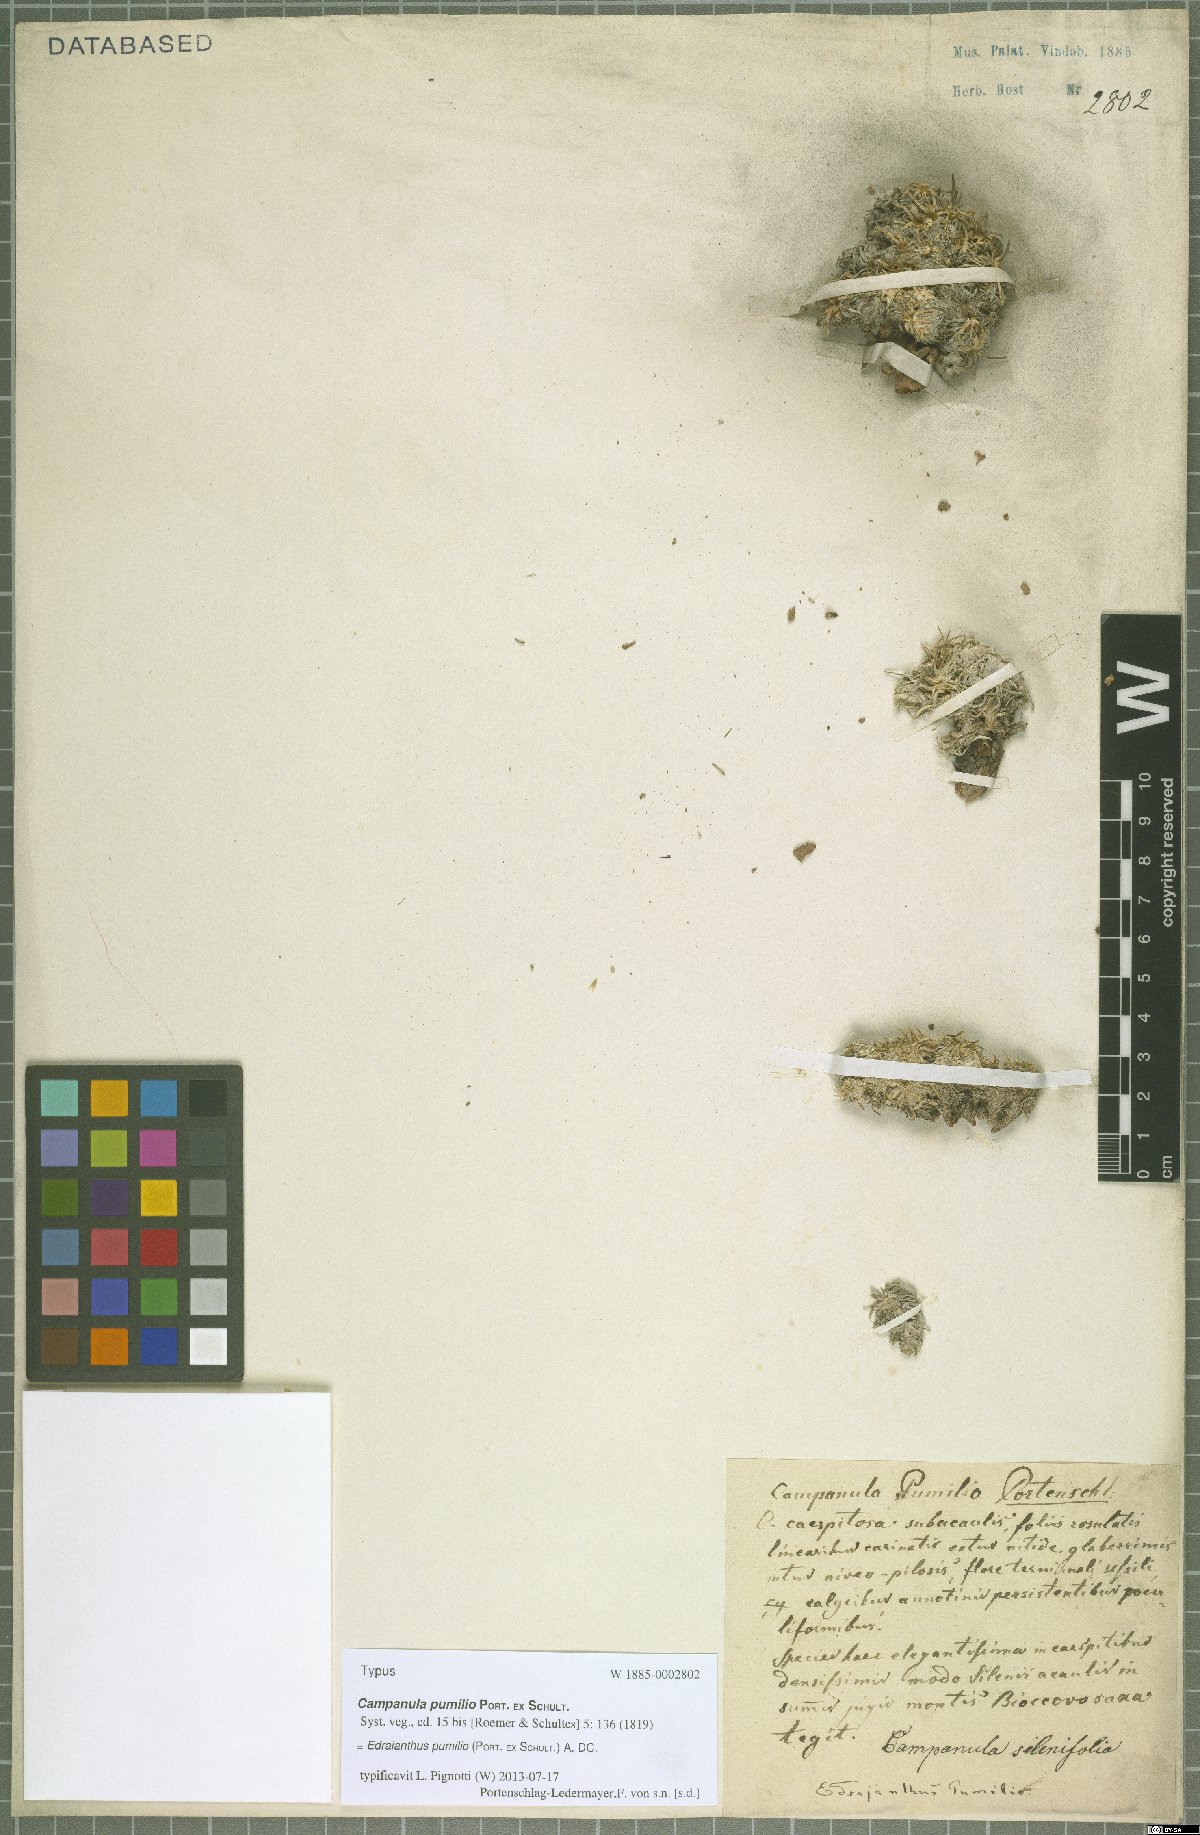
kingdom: Plantae
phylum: Tracheophyta
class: Magnoliopsida
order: Asterales
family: Campanulaceae
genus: Edraianthus
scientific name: Edraianthus pumilio
